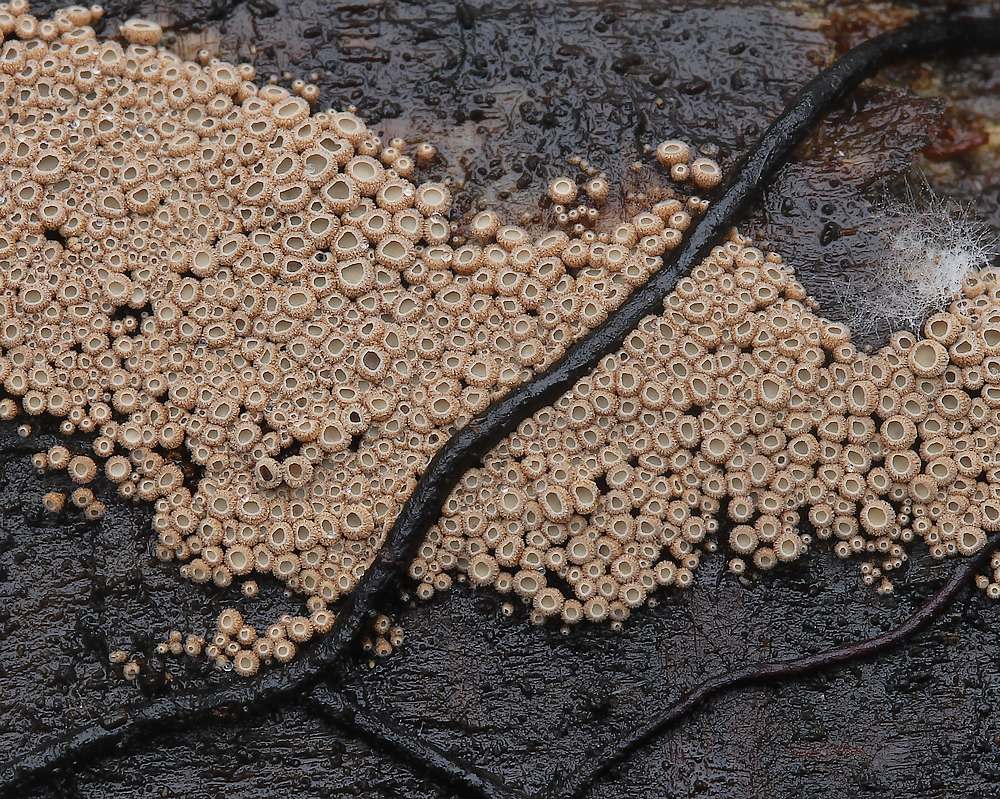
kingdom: Fungi
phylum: Basidiomycota
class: Agaricomycetes
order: Agaricales
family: Niaceae
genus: Merismodes
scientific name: Merismodes anomala
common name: almindelig læderskål
